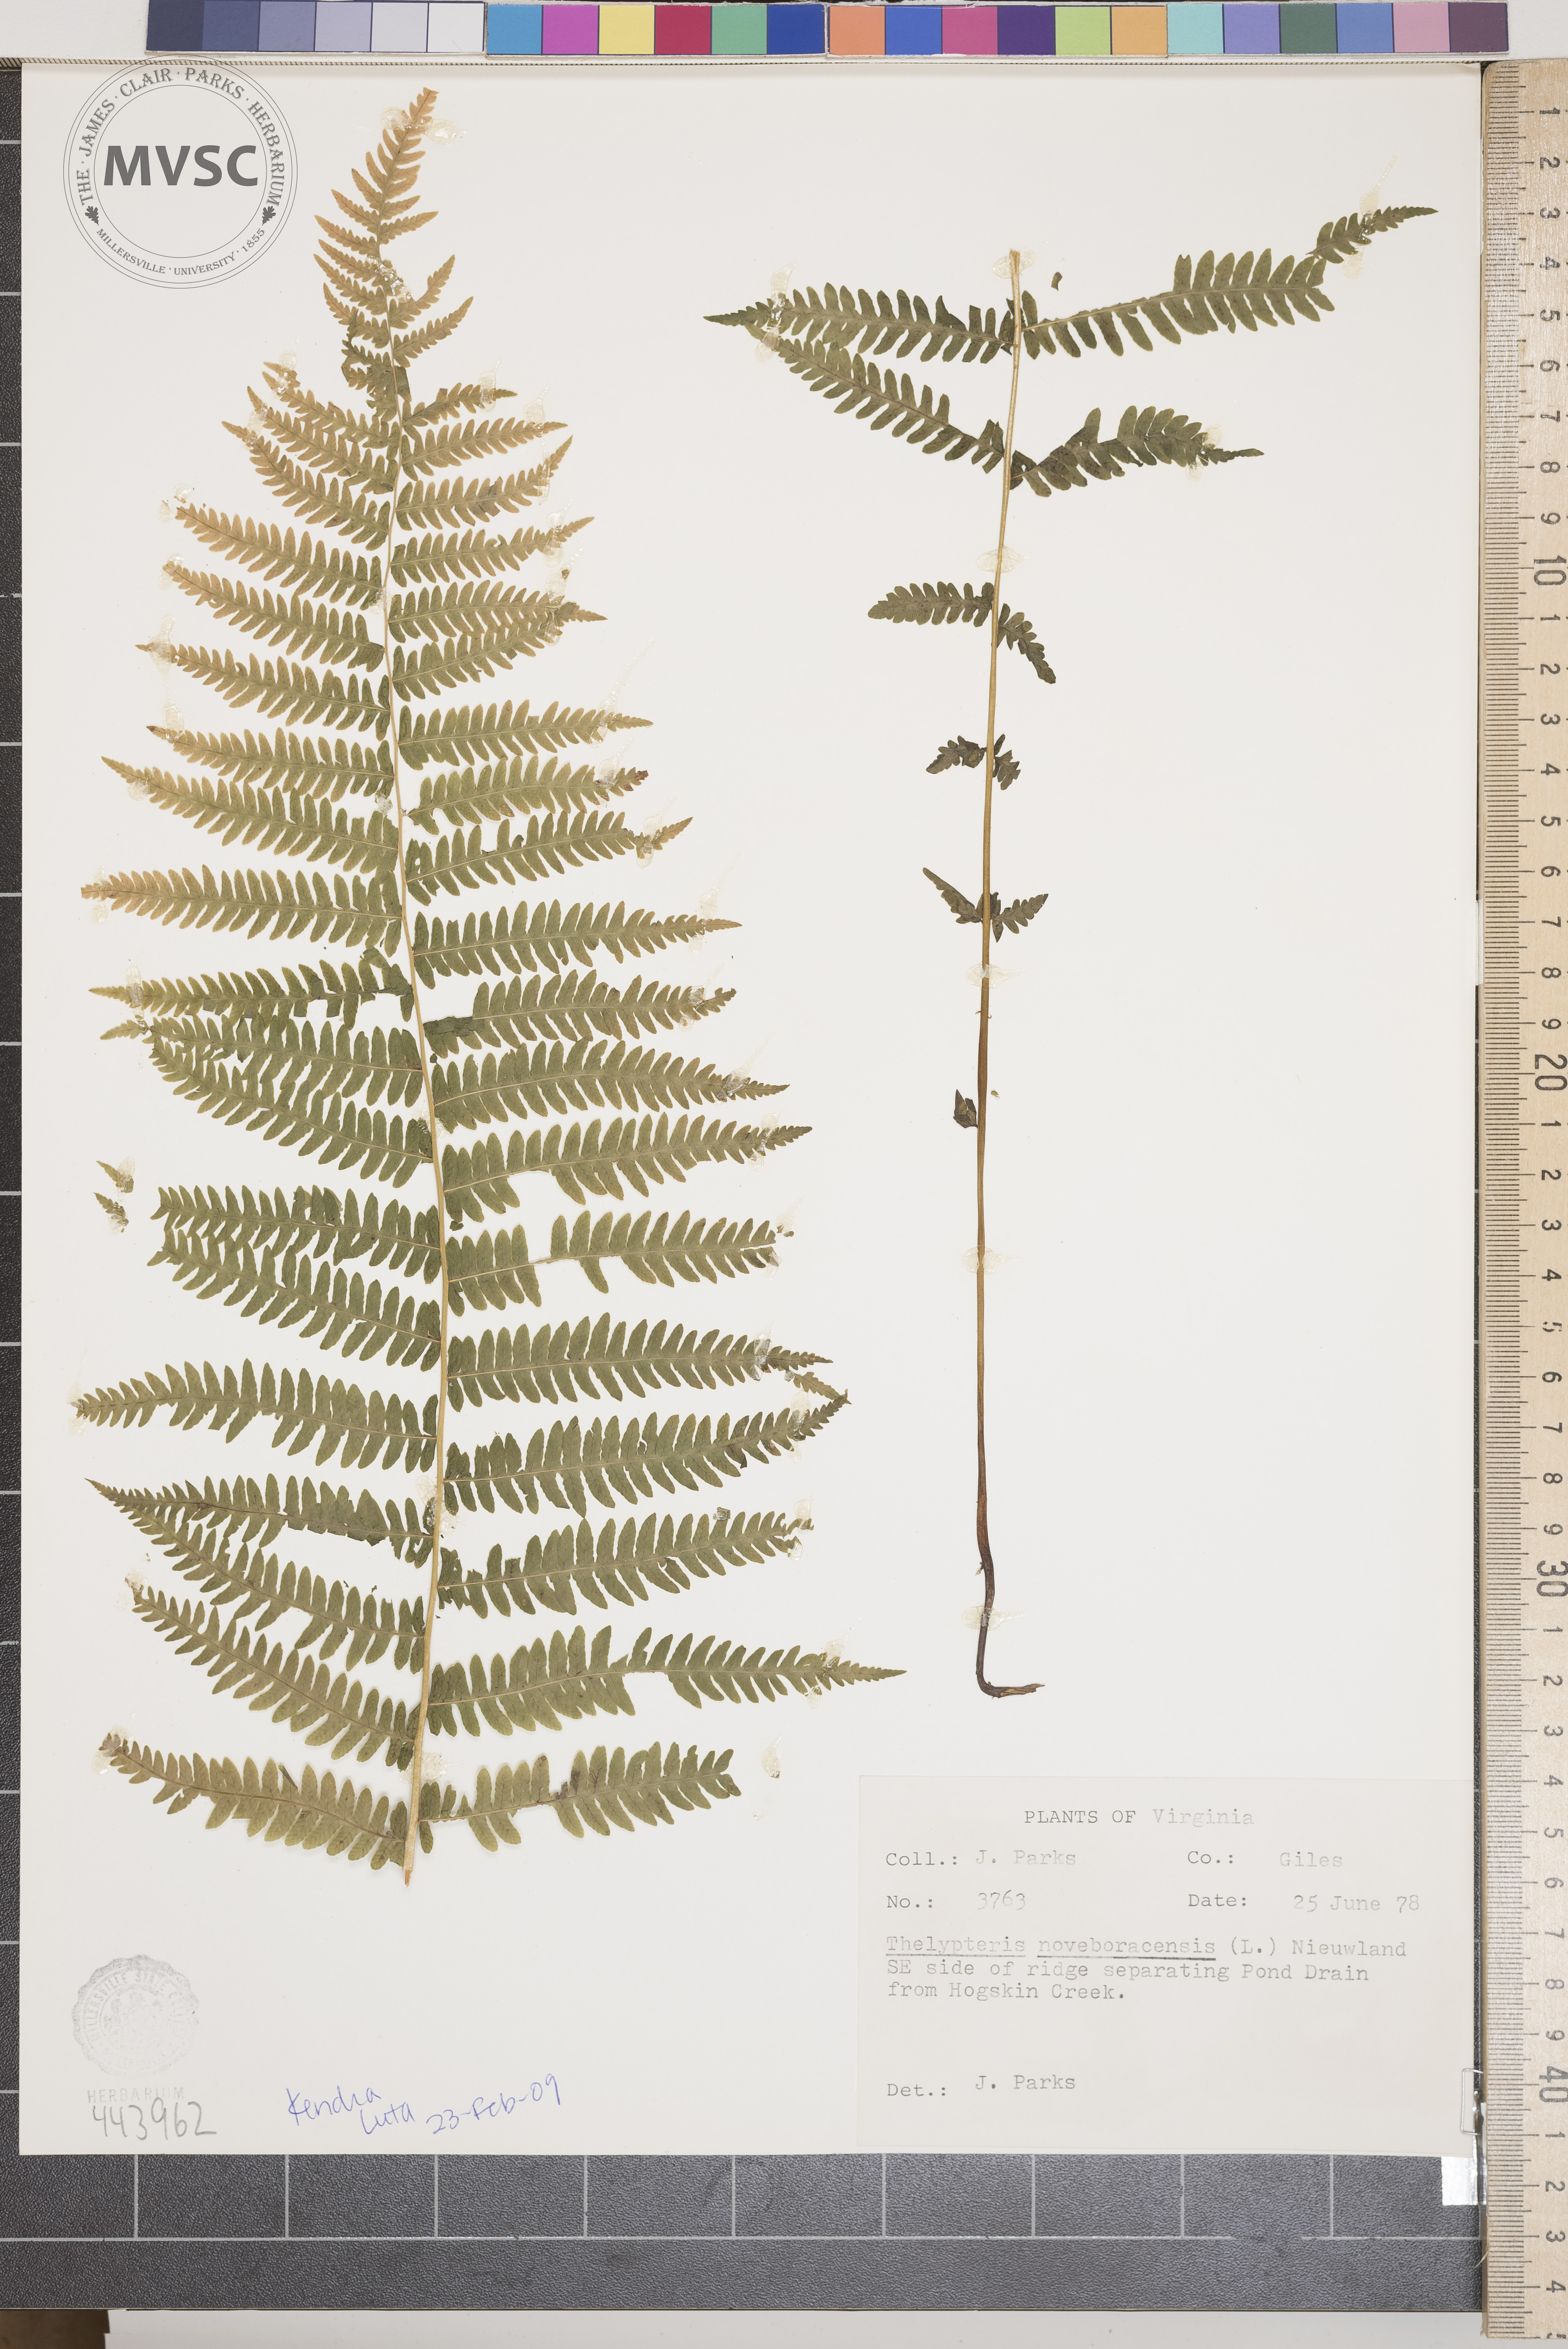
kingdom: Plantae
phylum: Tracheophyta
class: Polypodiopsida
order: Polypodiales
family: Thelypteridaceae
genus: Amauropelta
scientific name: Amauropelta noveboracensis
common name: New york fern
